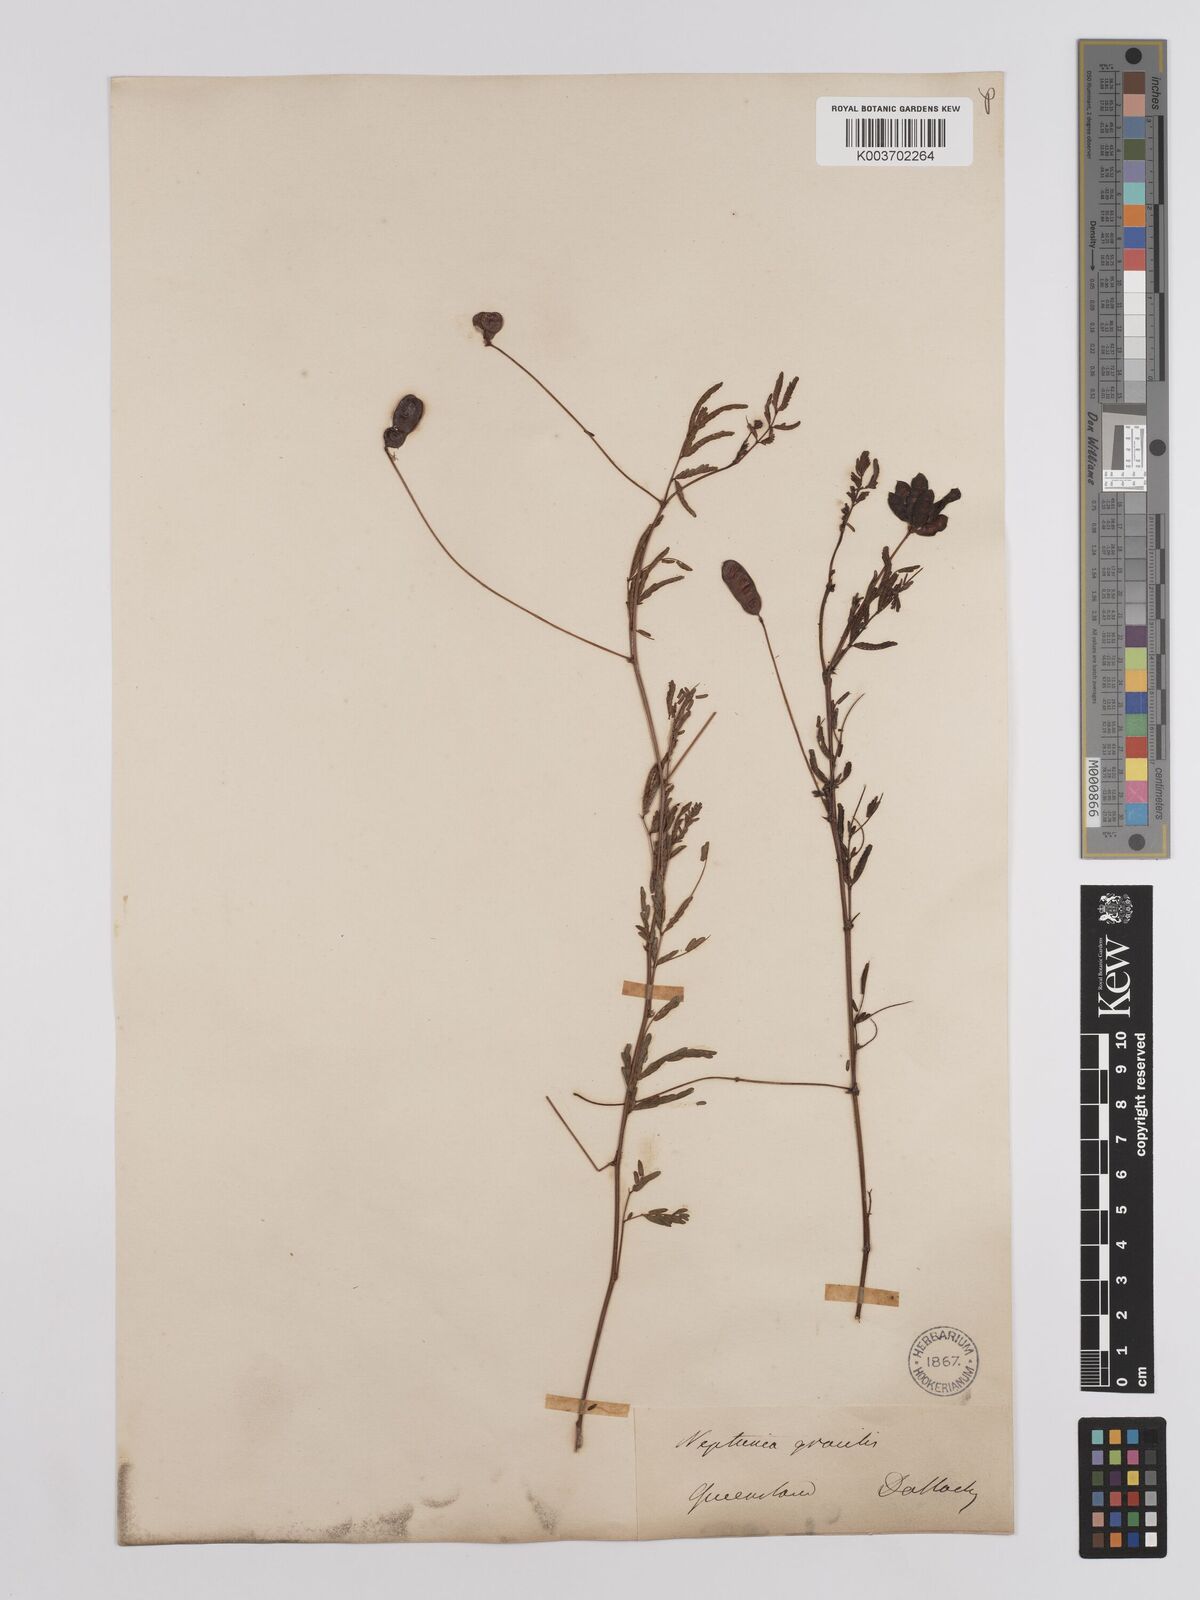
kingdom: Plantae
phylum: Tracheophyta
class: Magnoliopsida
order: Fabales
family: Fabaceae
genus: Neptunia
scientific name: Neptunia gracilis
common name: Sensitive-plant
